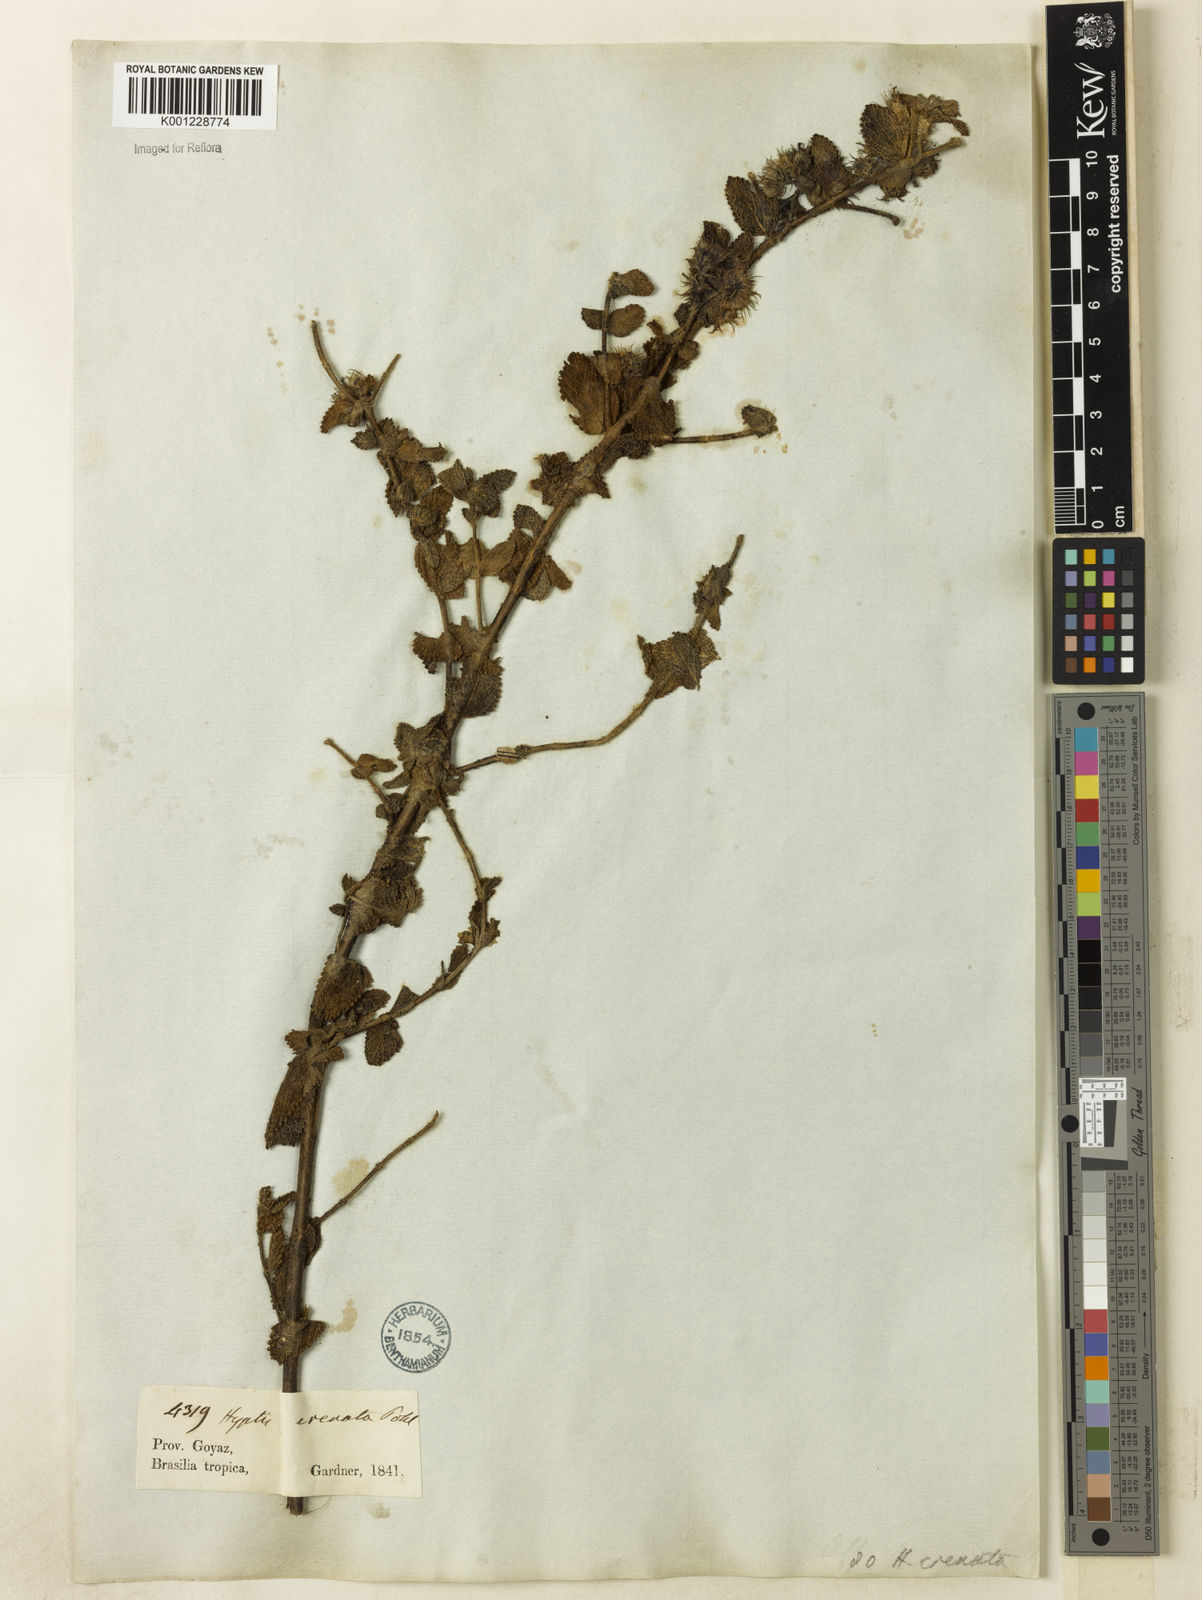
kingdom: Plantae
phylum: Tracheophyta
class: Magnoliopsida
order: Lamiales
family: Lamiaceae
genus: Hyptis
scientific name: Hyptis crenata
